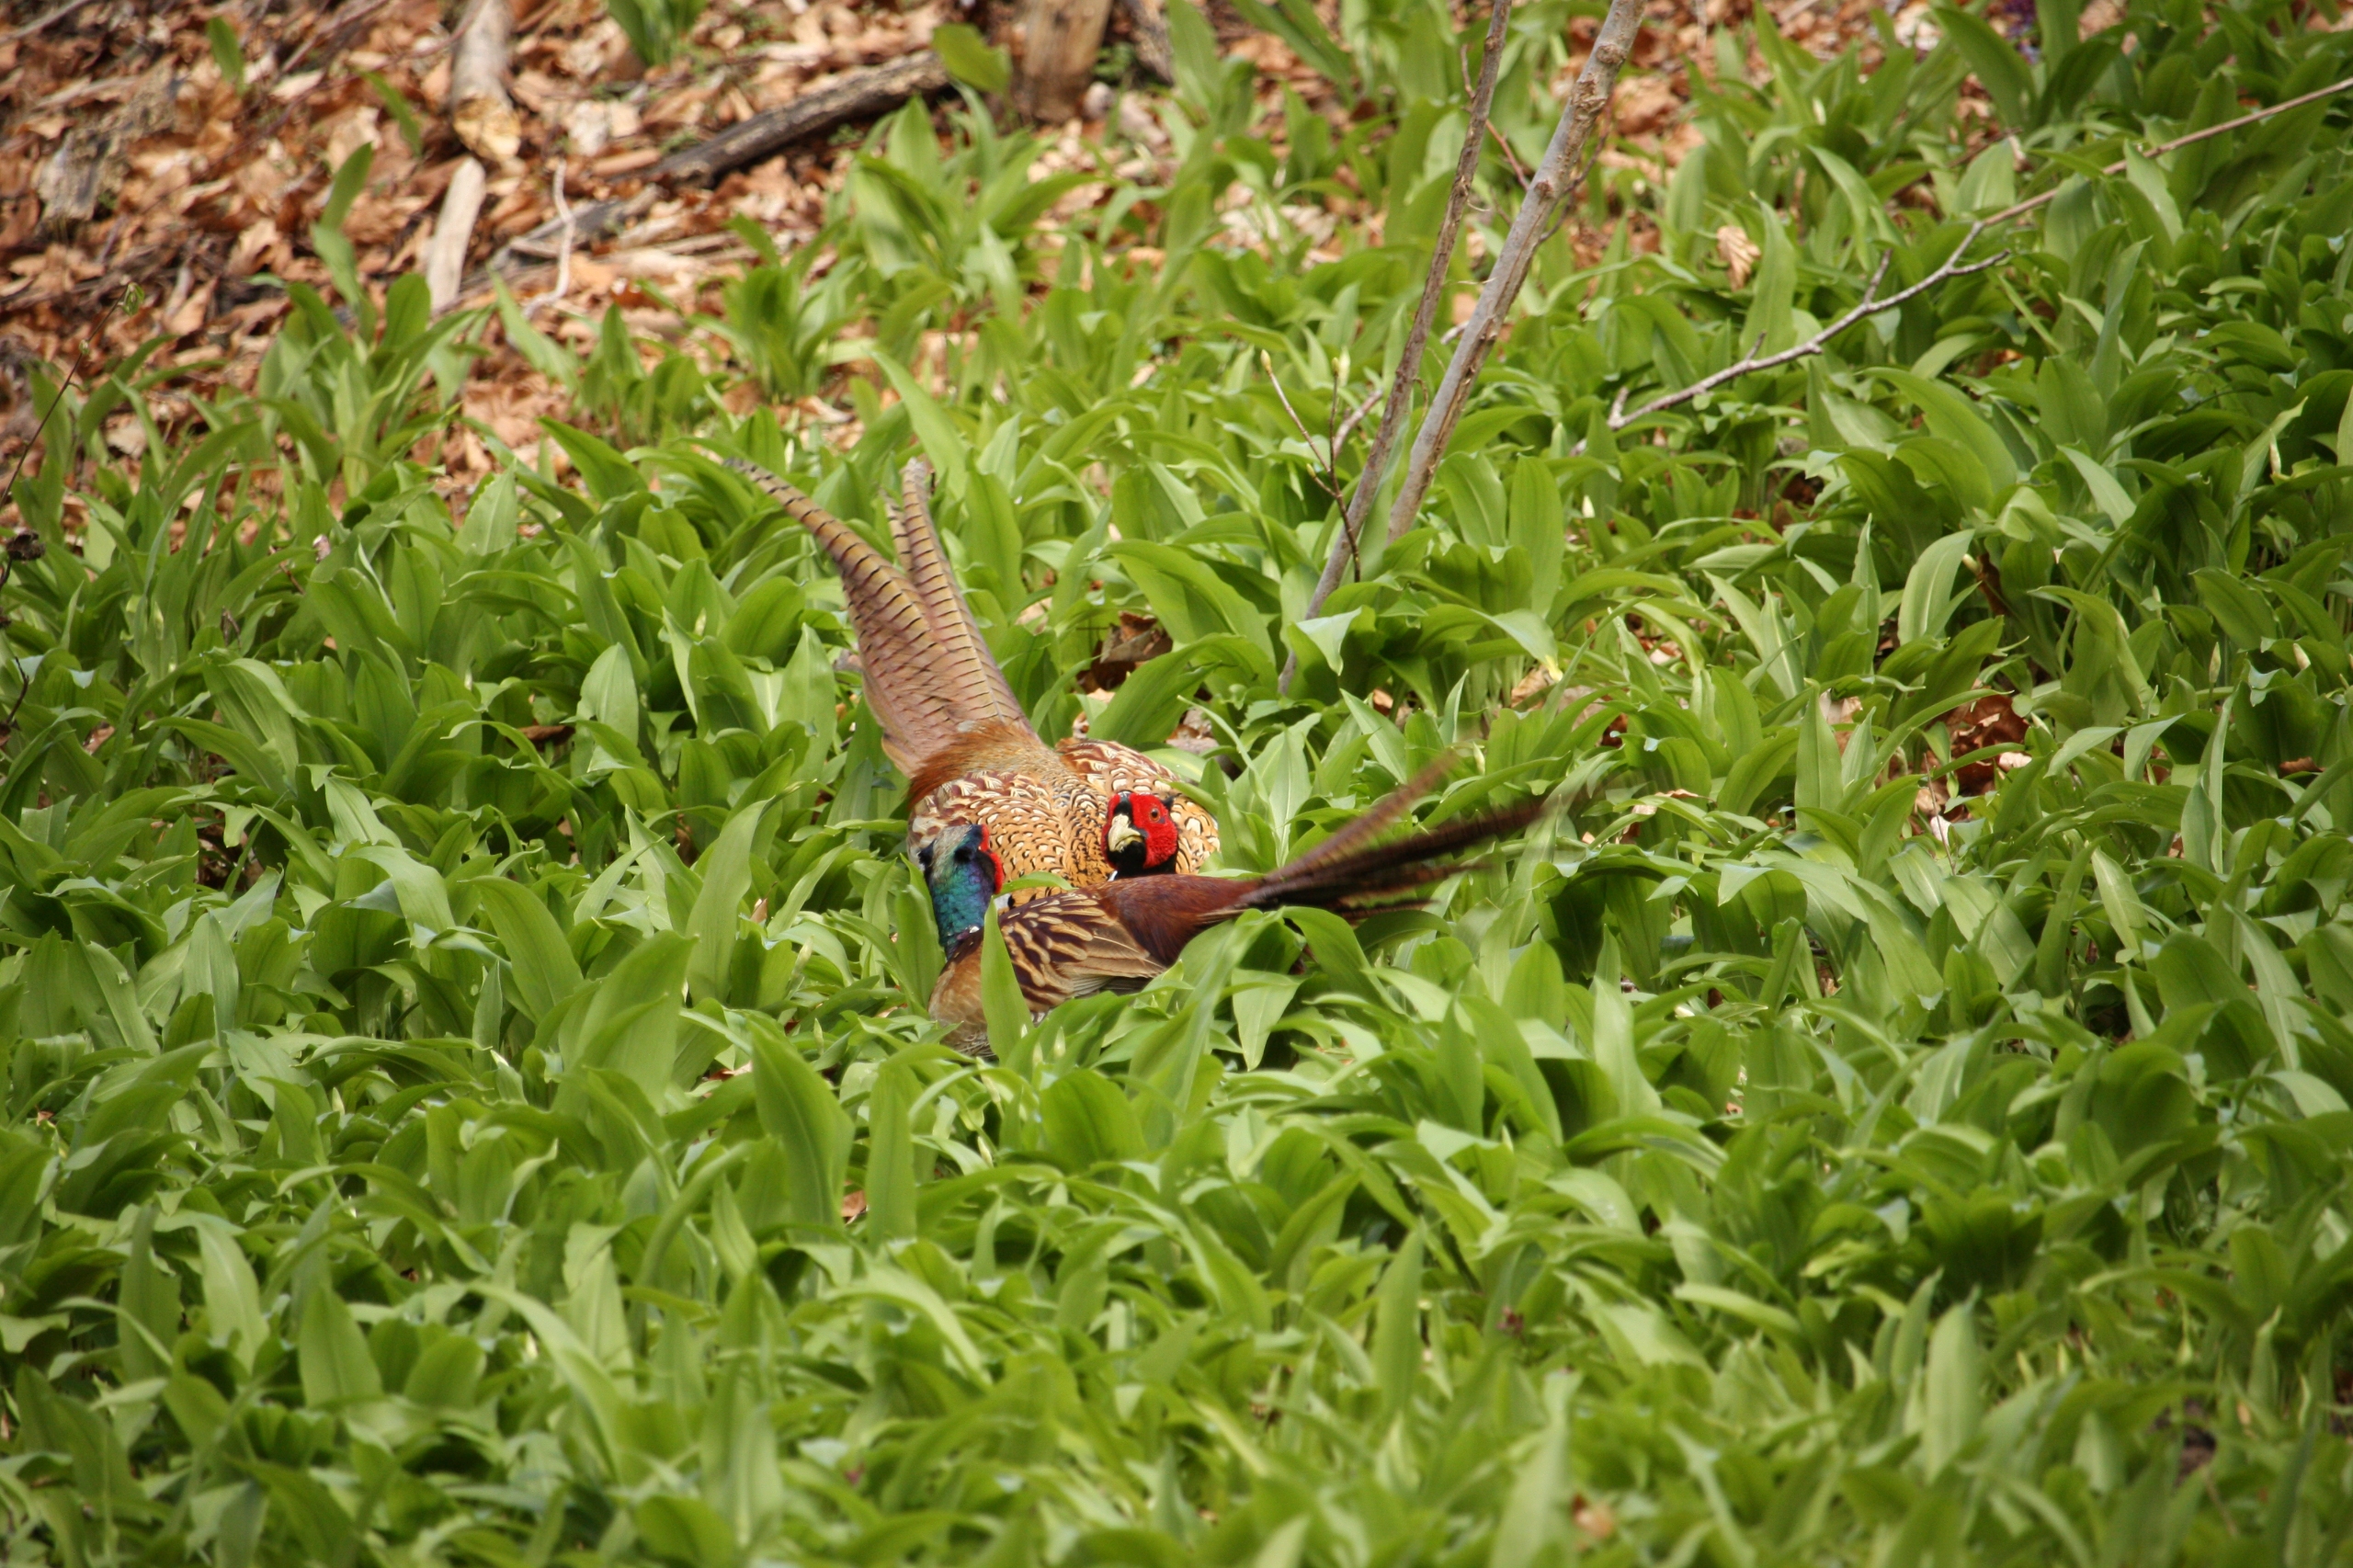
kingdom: Animalia
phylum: Chordata
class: Aves
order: Galliformes
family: Phasianidae
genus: Phasianus
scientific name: Phasianus colchicus
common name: Fasan
